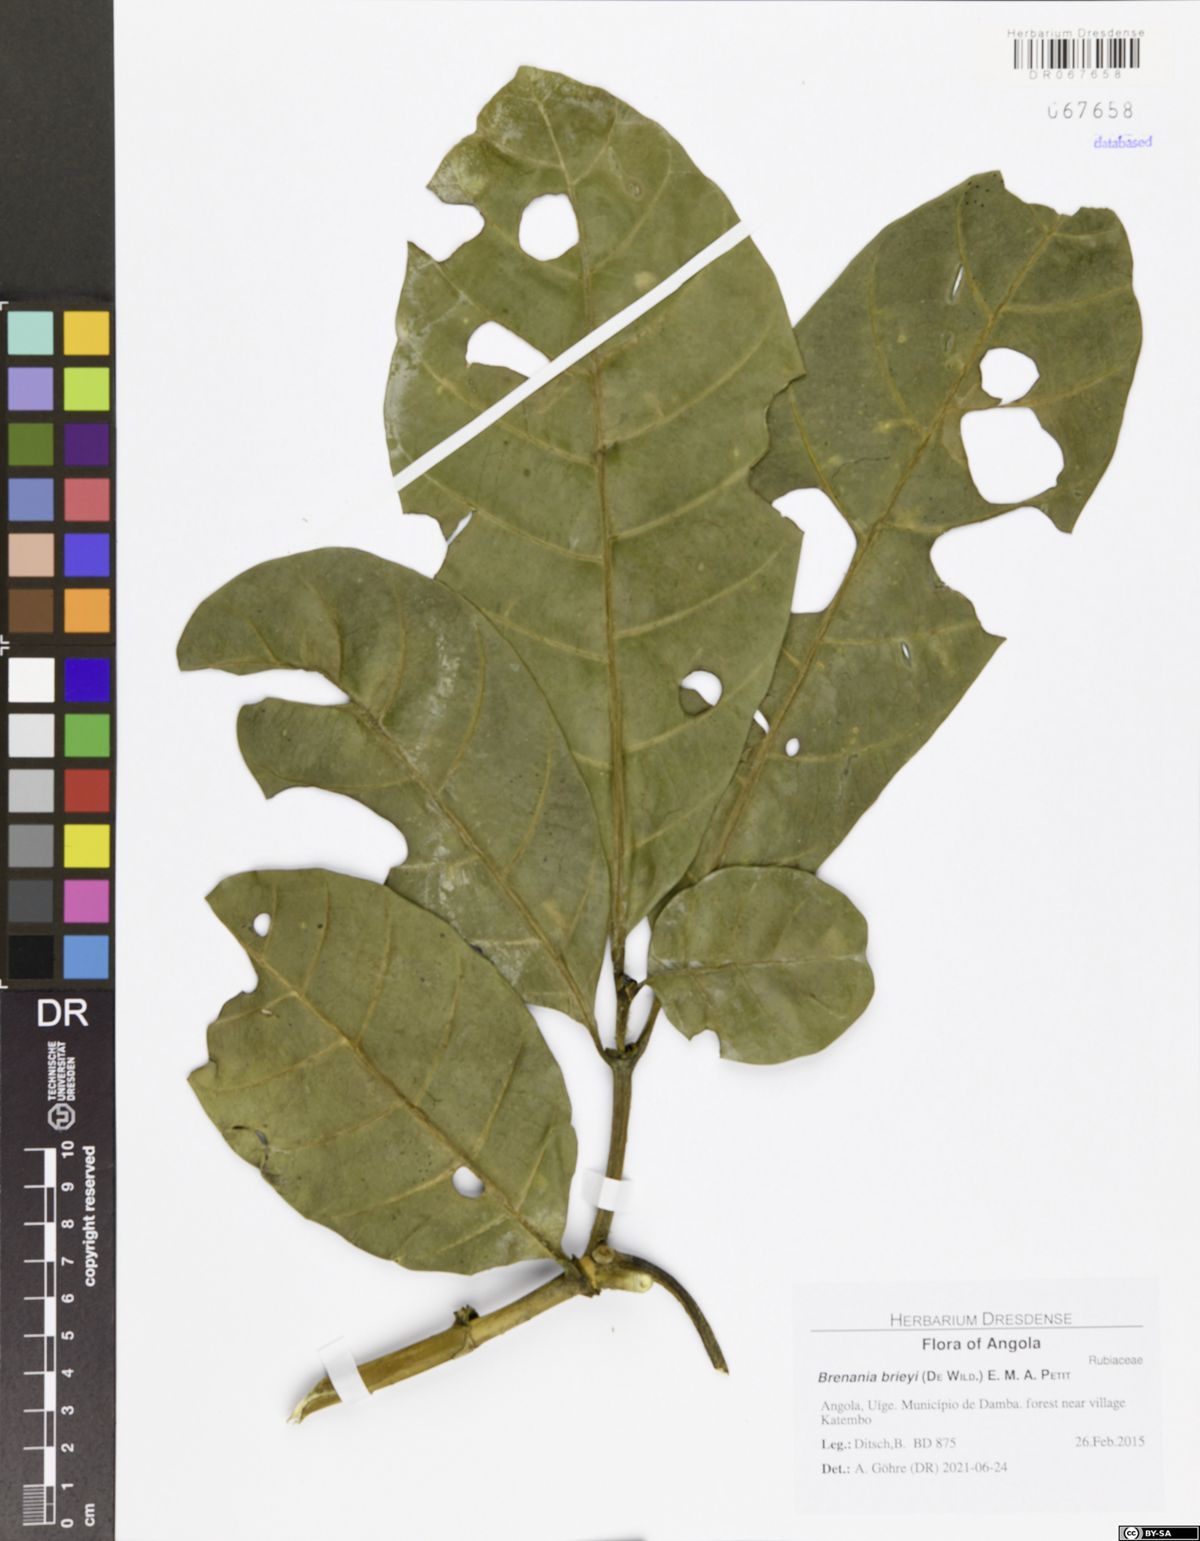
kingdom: Plantae
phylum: Tracheophyta
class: Magnoliopsida
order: Gentianales
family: Rubiaceae
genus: Brenania
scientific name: Brenania brieyi
